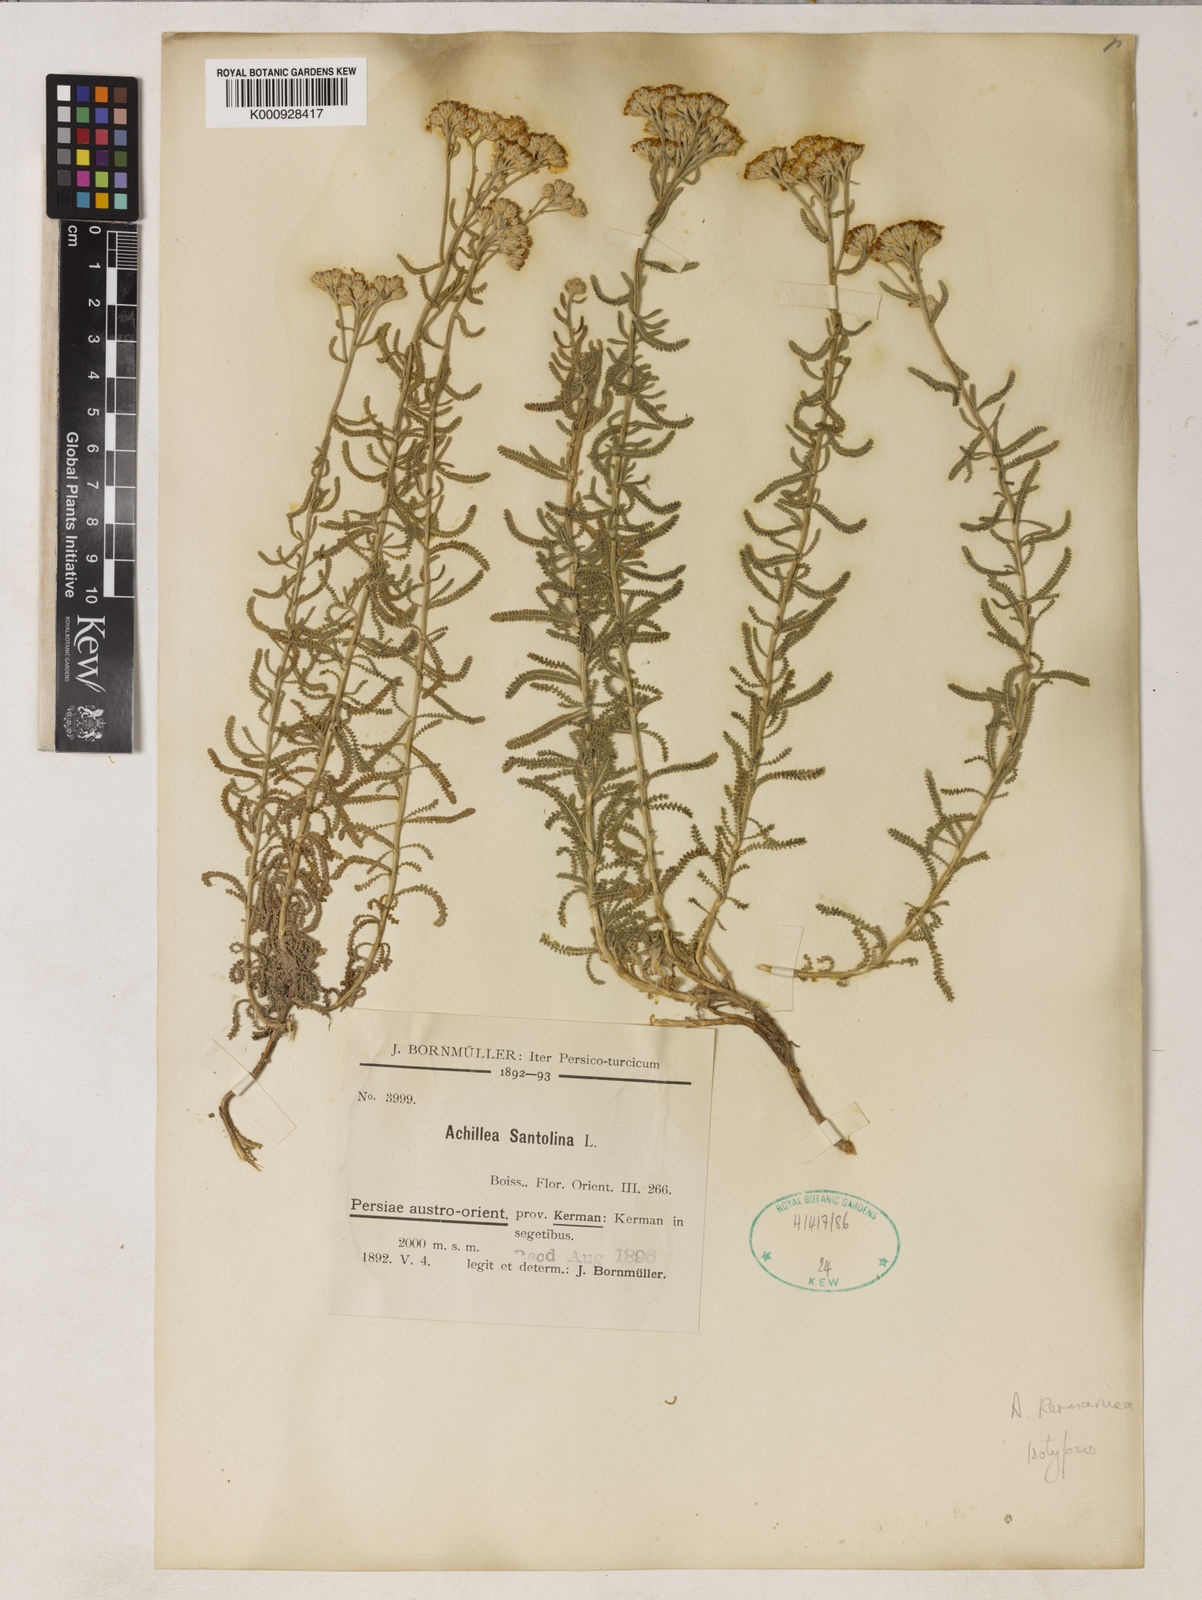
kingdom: Plantae
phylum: Tracheophyta
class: Magnoliopsida
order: Asterales
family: Asteraceae
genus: Achillea
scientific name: Achillea wilhelmsii
